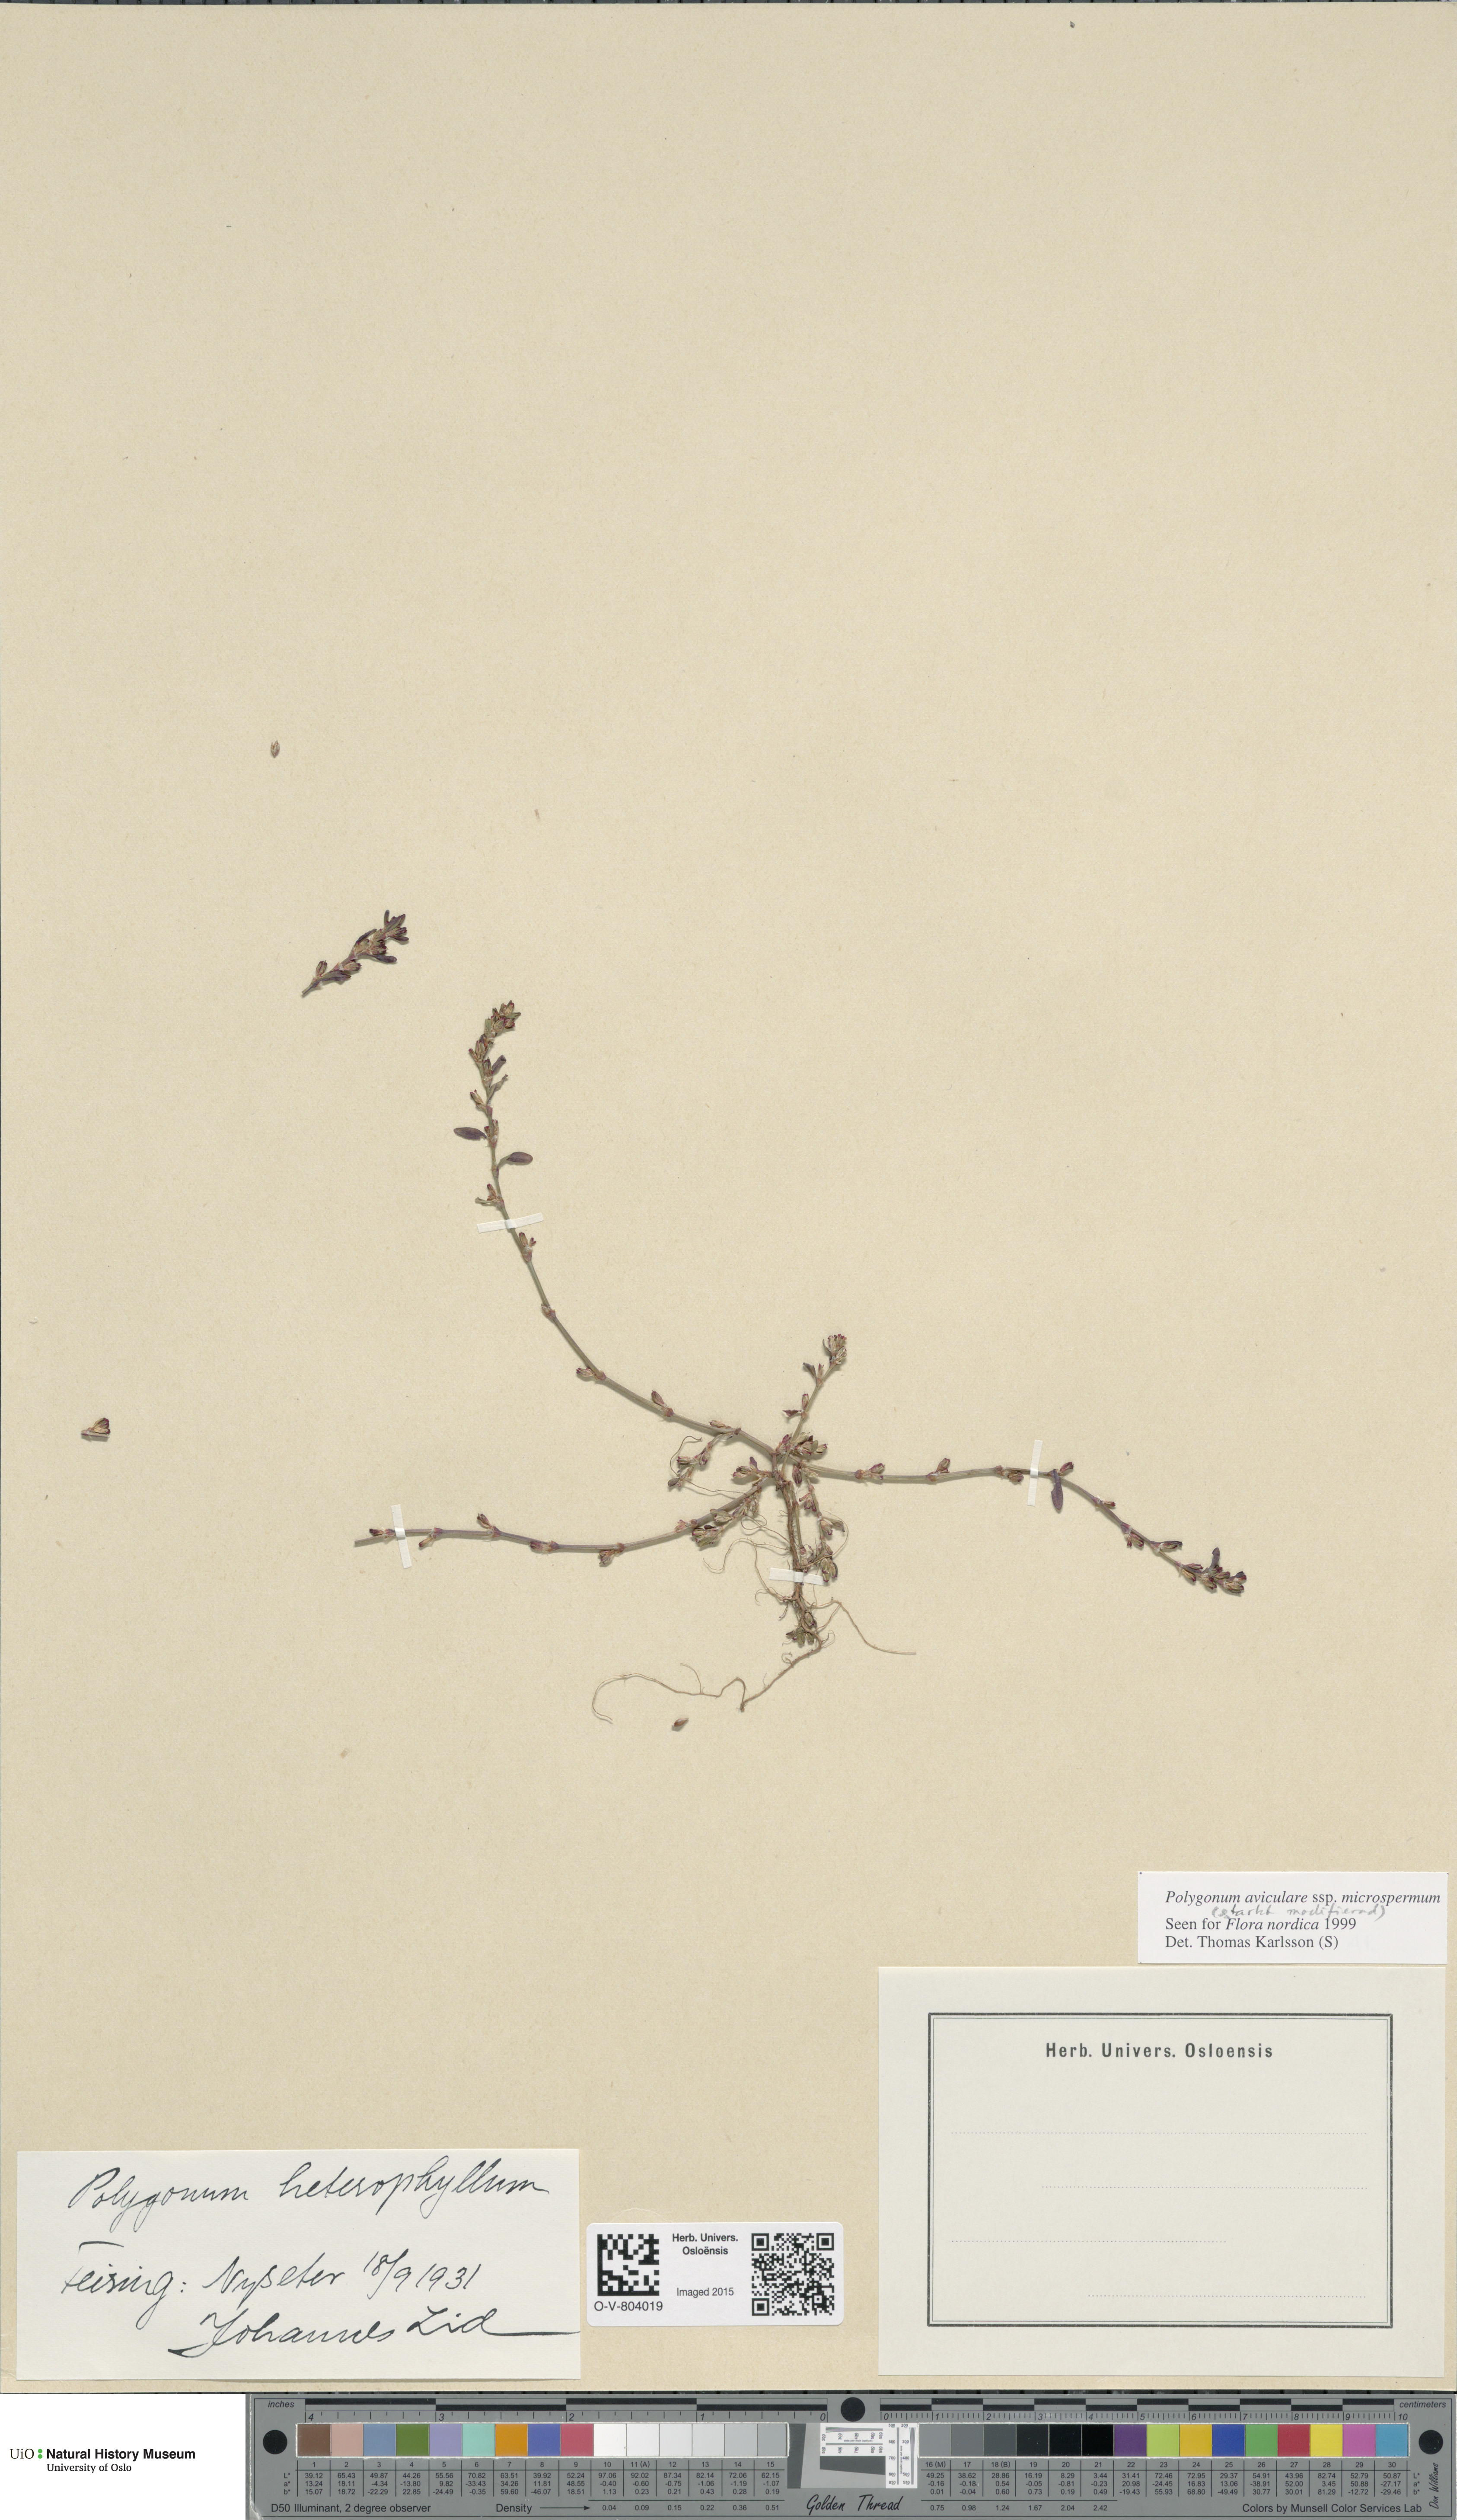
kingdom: Plantae
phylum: Tracheophyta
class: Magnoliopsida
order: Caryophyllales
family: Polygonaceae
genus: Polygonum
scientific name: Polygonum arenastrum
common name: Equal-leaved knotgrass
